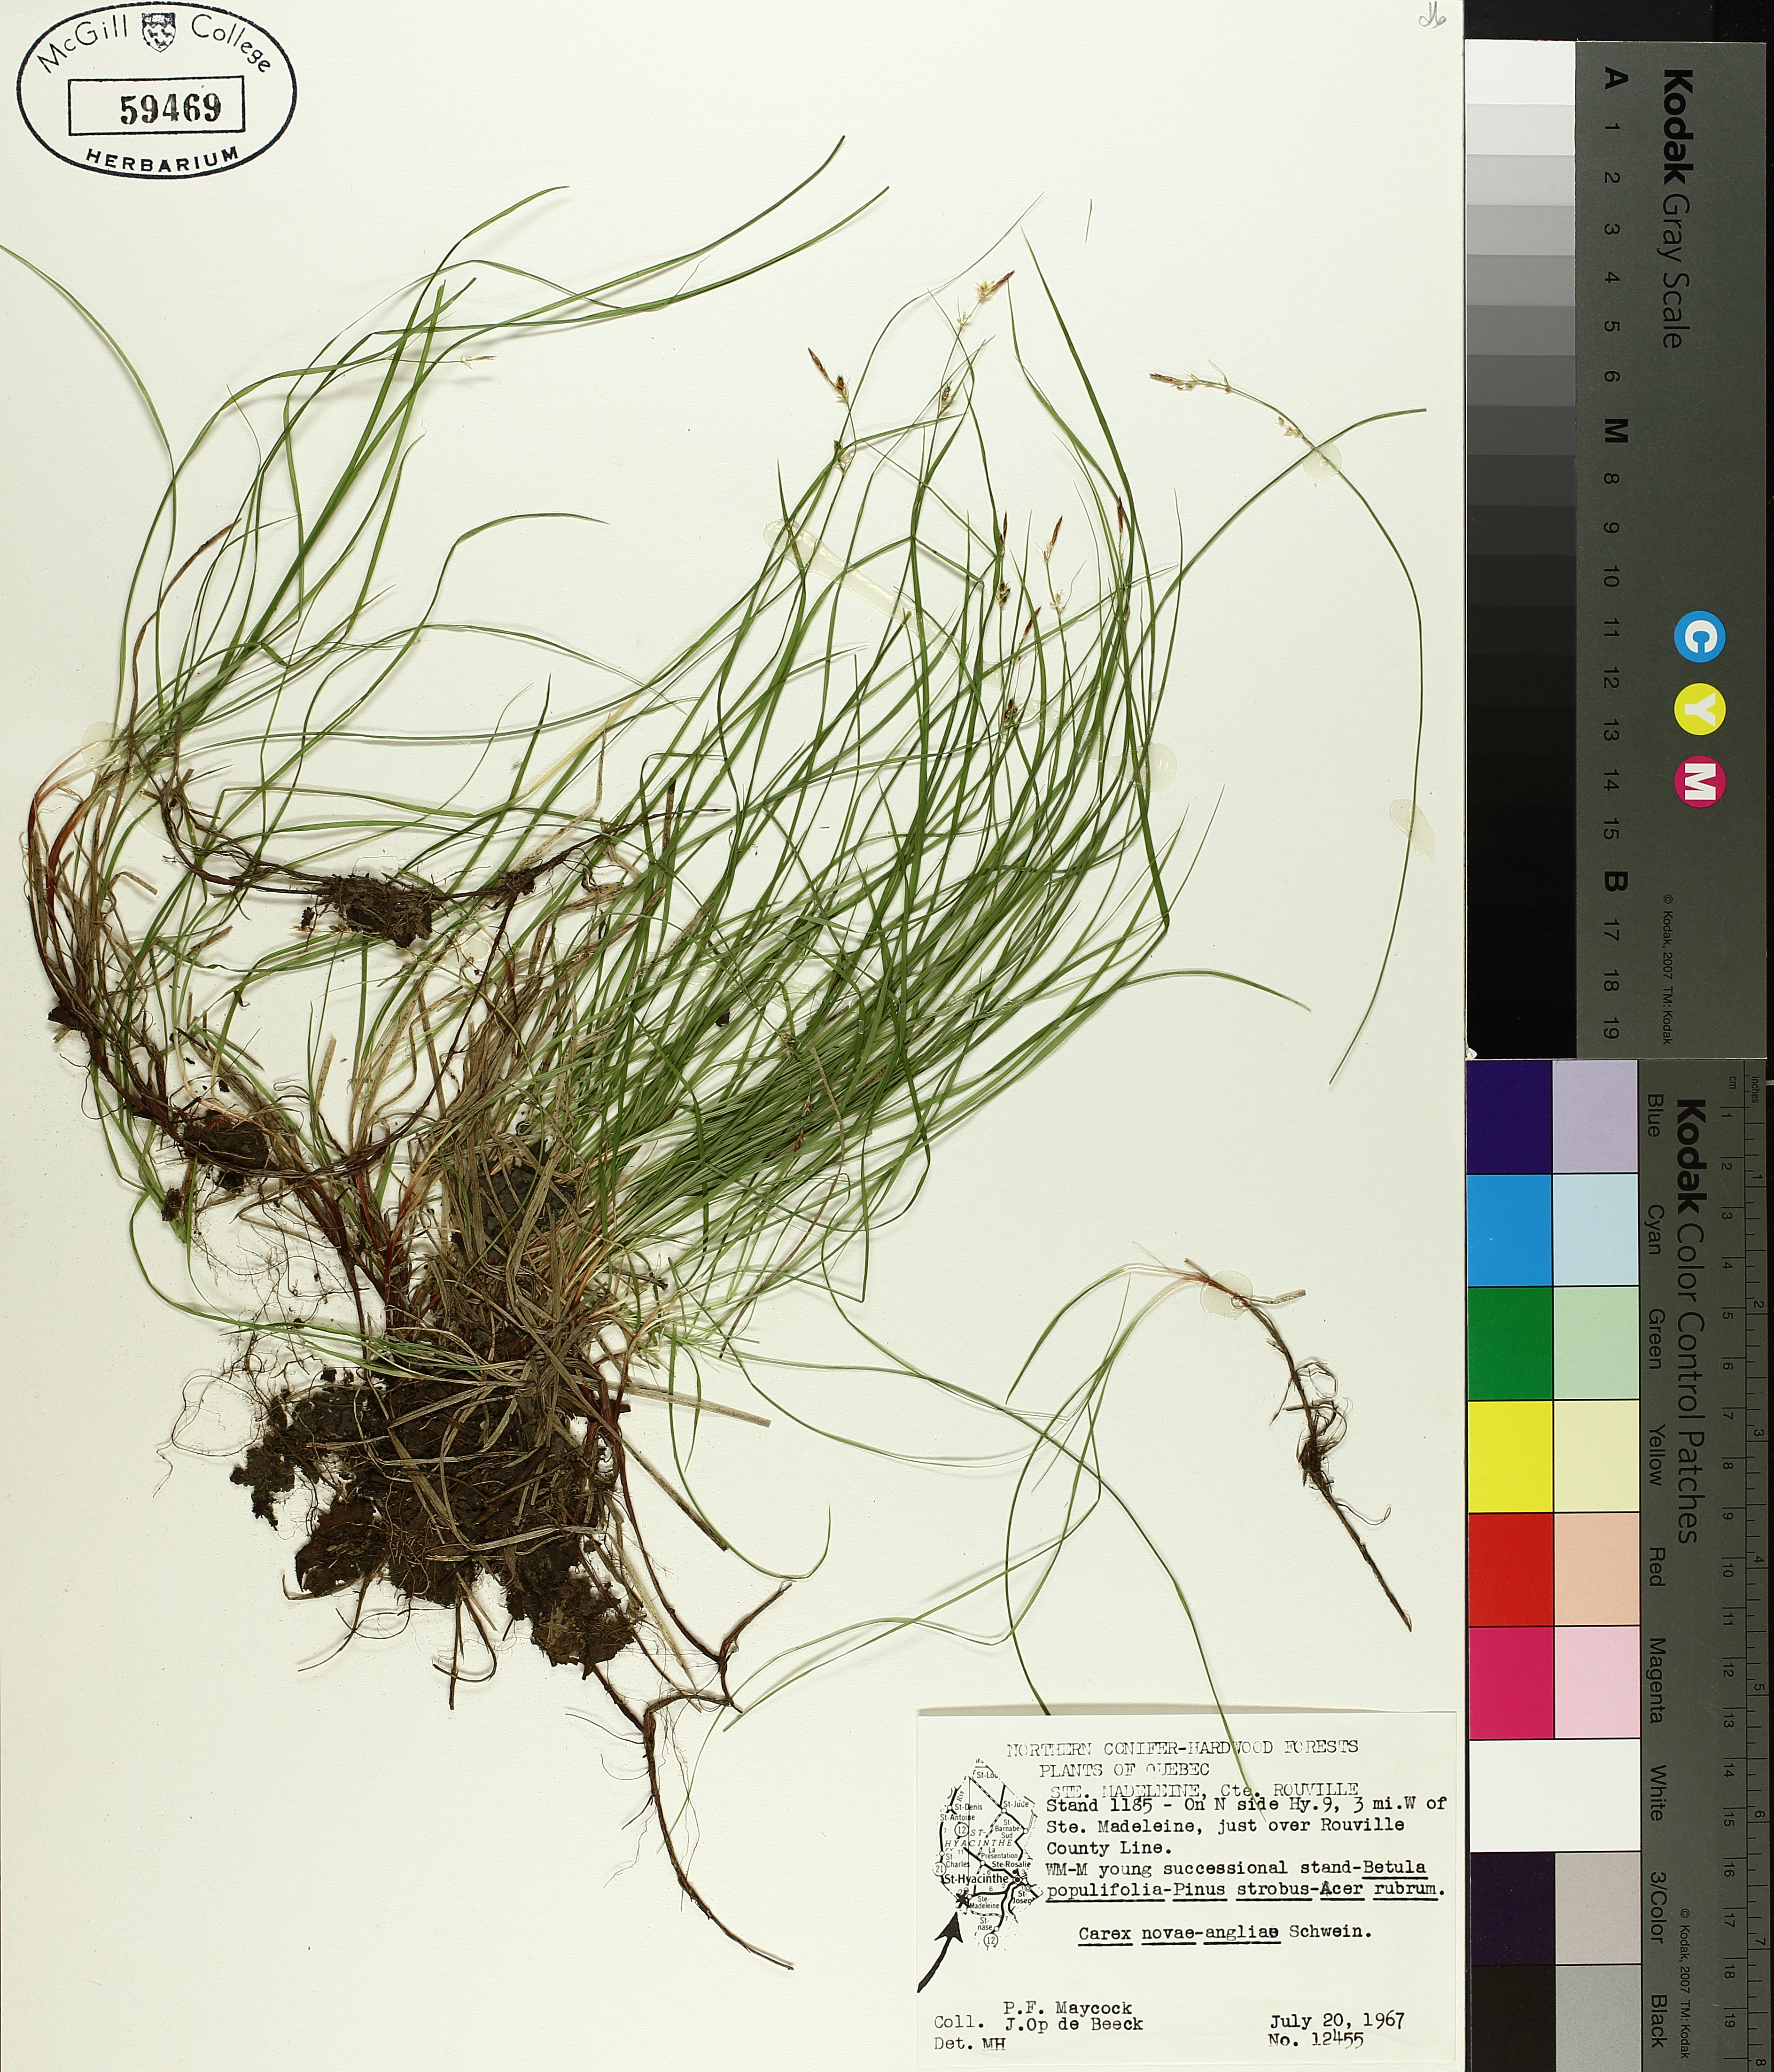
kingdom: Plantae
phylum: Tracheophyta
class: Liliopsida
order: Poales
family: Cyperaceae
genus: Carex
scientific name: Carex novae-angliae
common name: New england sedge
